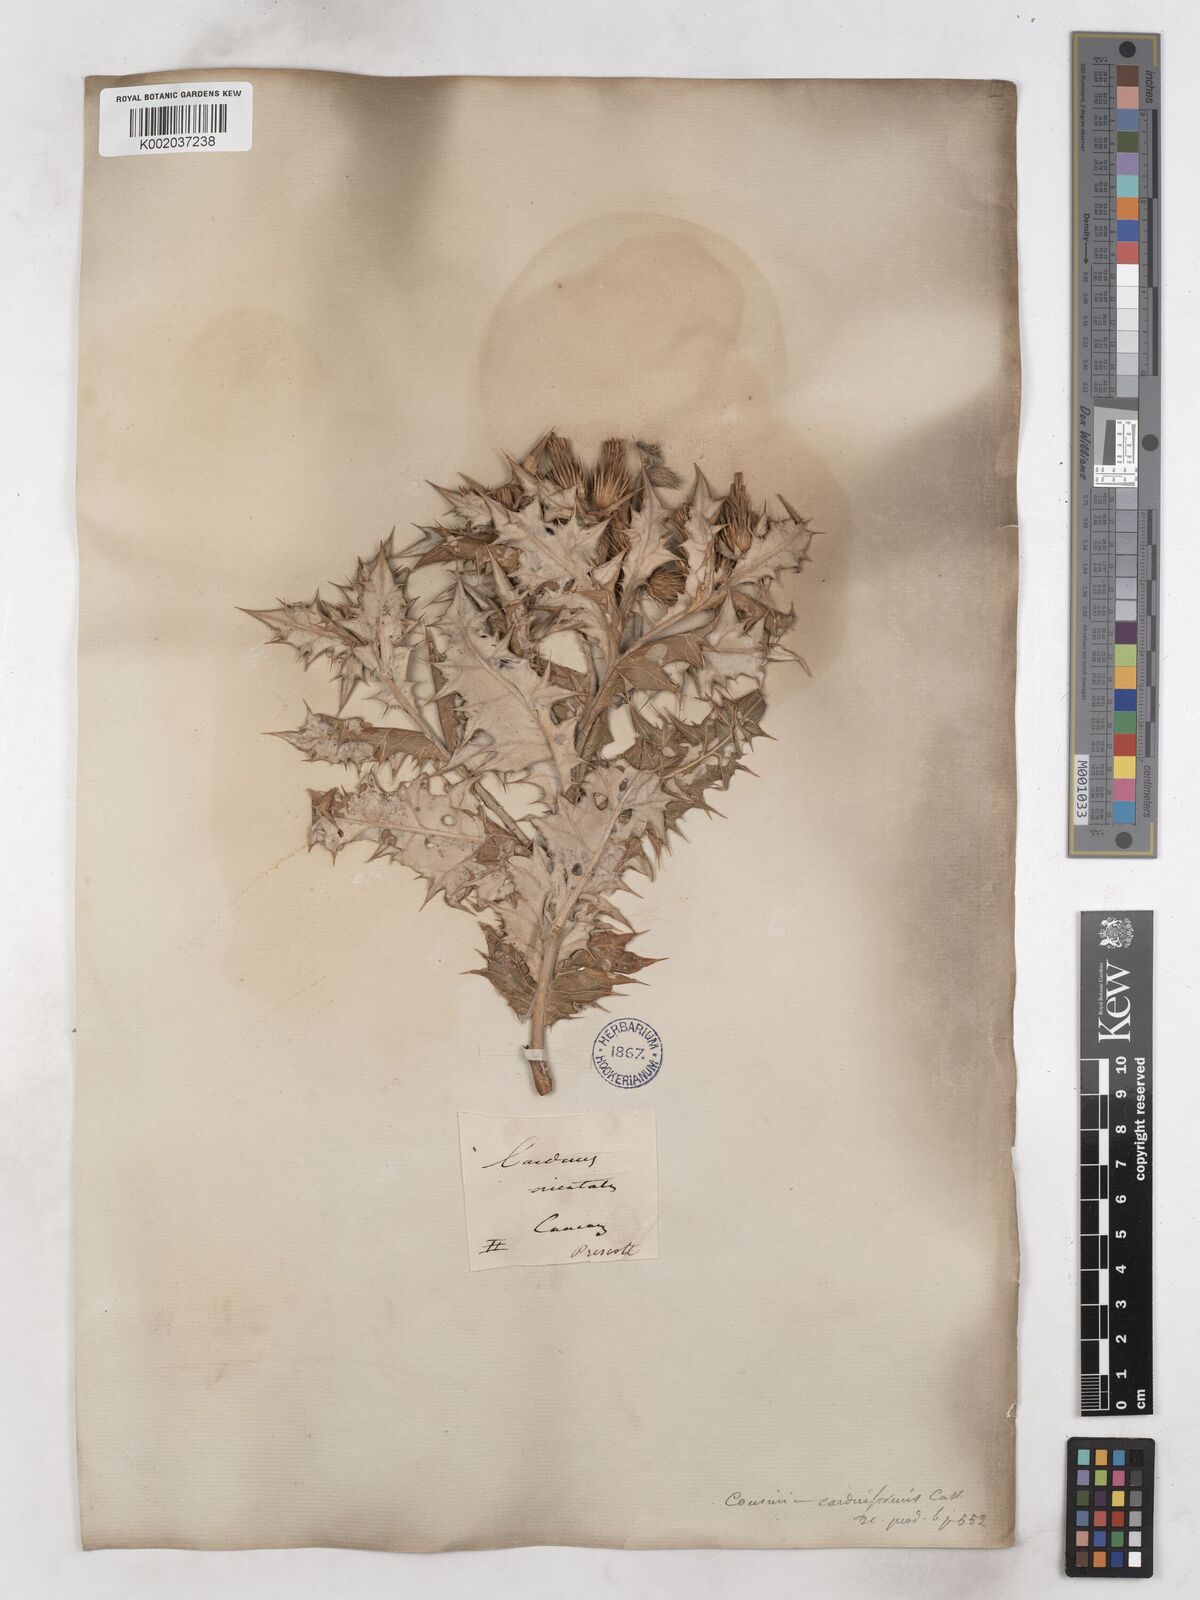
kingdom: Plantae
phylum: Tracheophyta
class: Magnoliopsida
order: Asterales
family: Asteraceae
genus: Cousinia
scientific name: Cousinia
